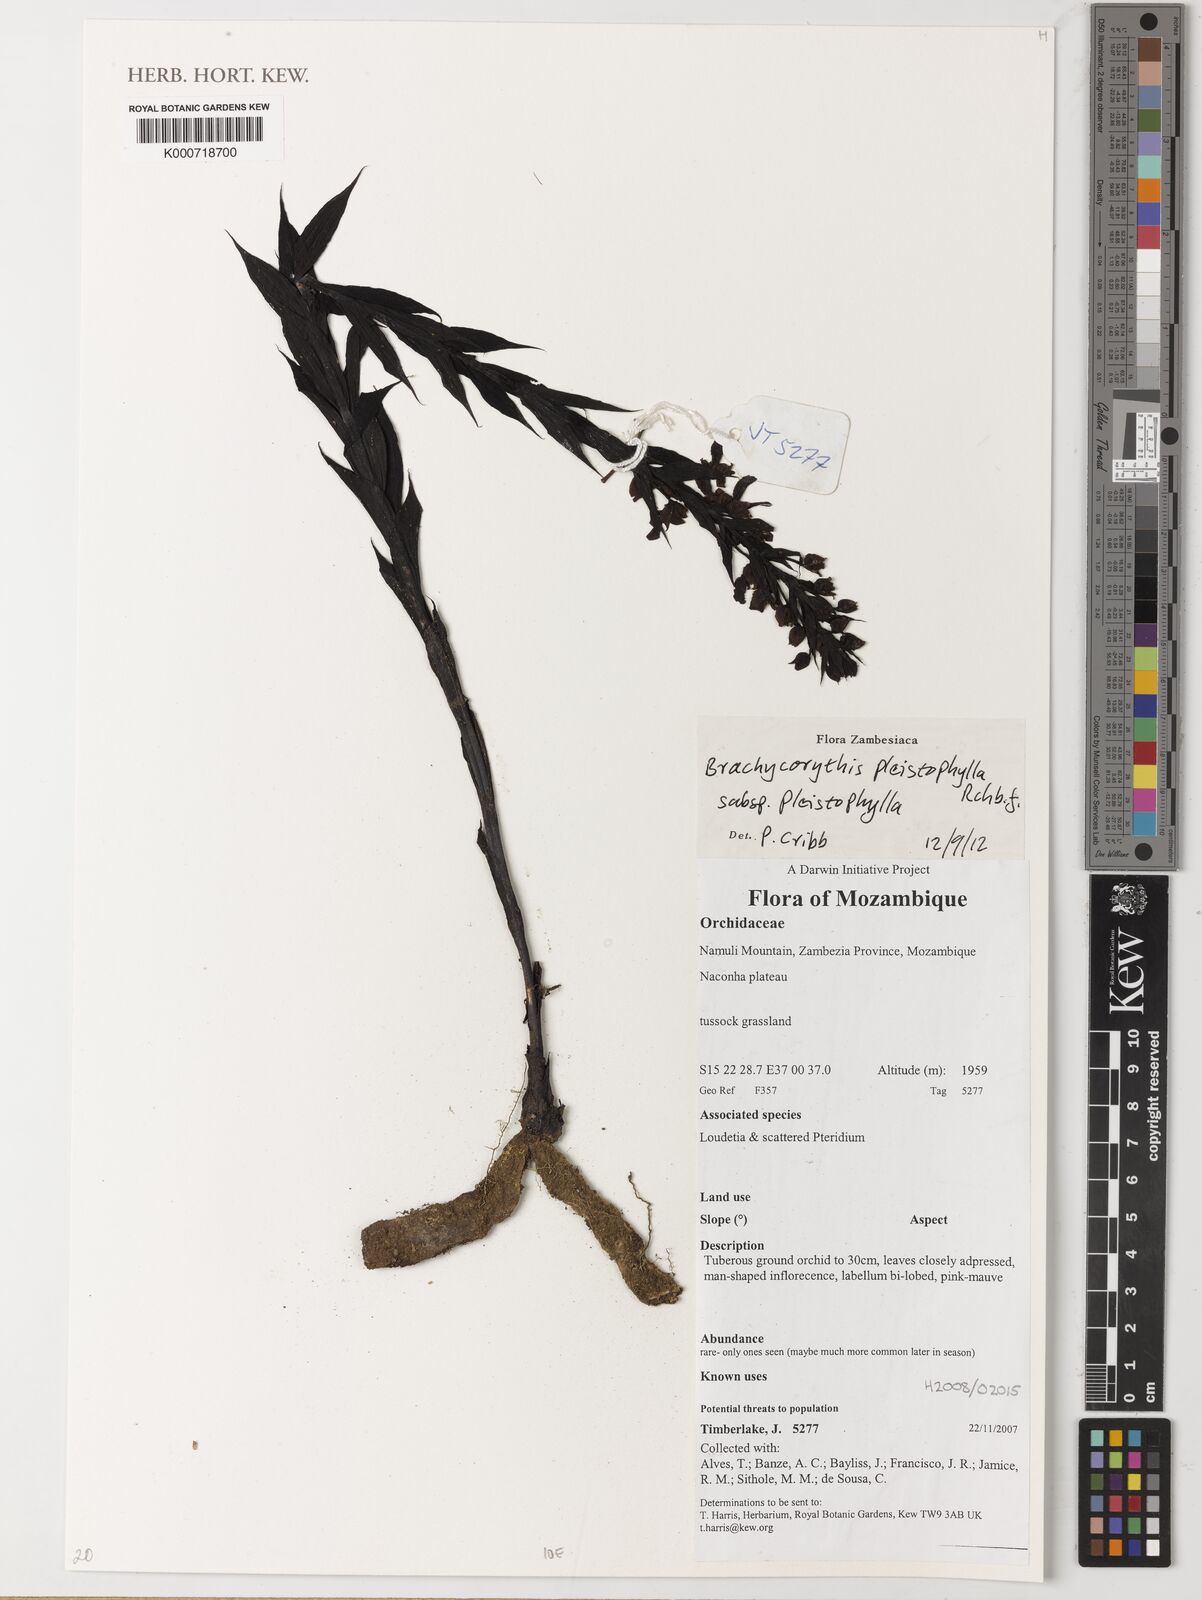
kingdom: Plantae
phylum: Tracheophyta
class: Liliopsida
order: Asparagales
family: Orchidaceae
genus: Brachycorythis
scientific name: Brachycorythis pleistophylla
